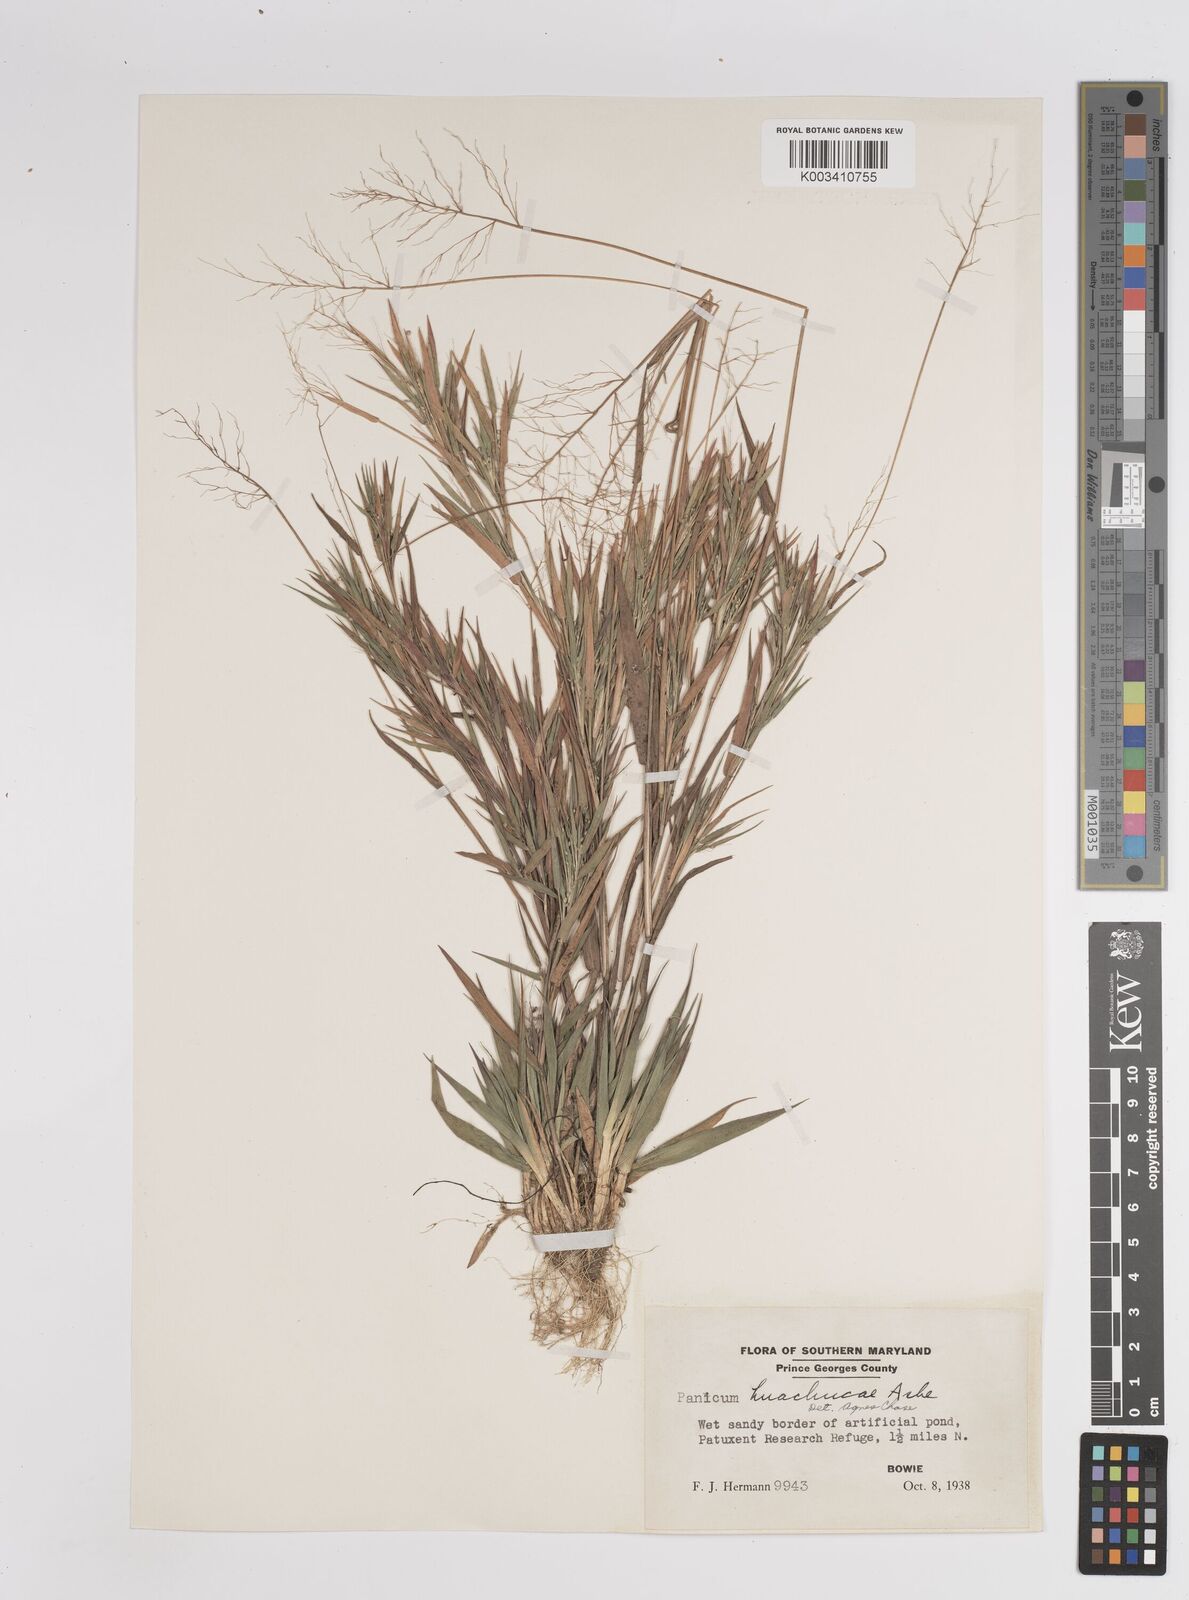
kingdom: Plantae
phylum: Tracheophyta
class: Liliopsida
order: Poales
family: Poaceae
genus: Dichanthelium
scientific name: Dichanthelium acuminatum
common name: Hairy panic grass
